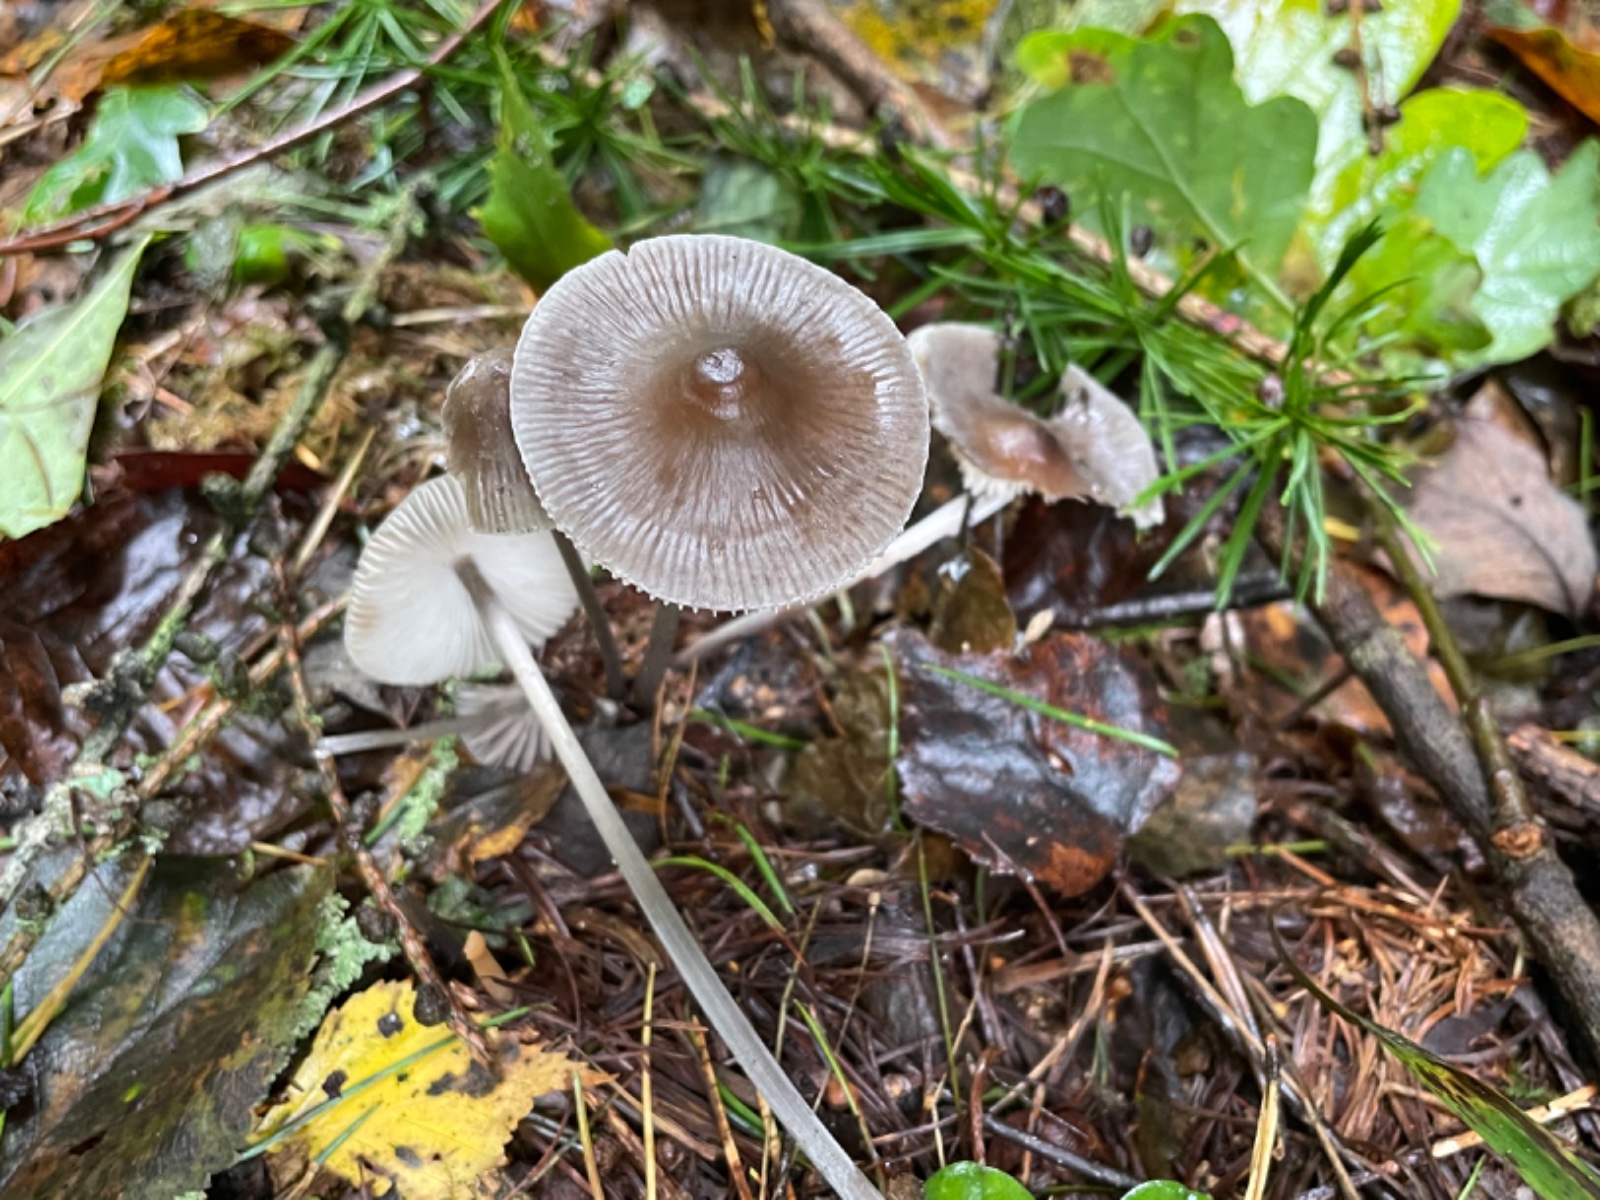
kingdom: Fungi
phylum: Basidiomycota
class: Agaricomycetes
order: Agaricales
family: Mycenaceae
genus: Mycena
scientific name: Mycena polygramma
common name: mangestribet huesvamp
